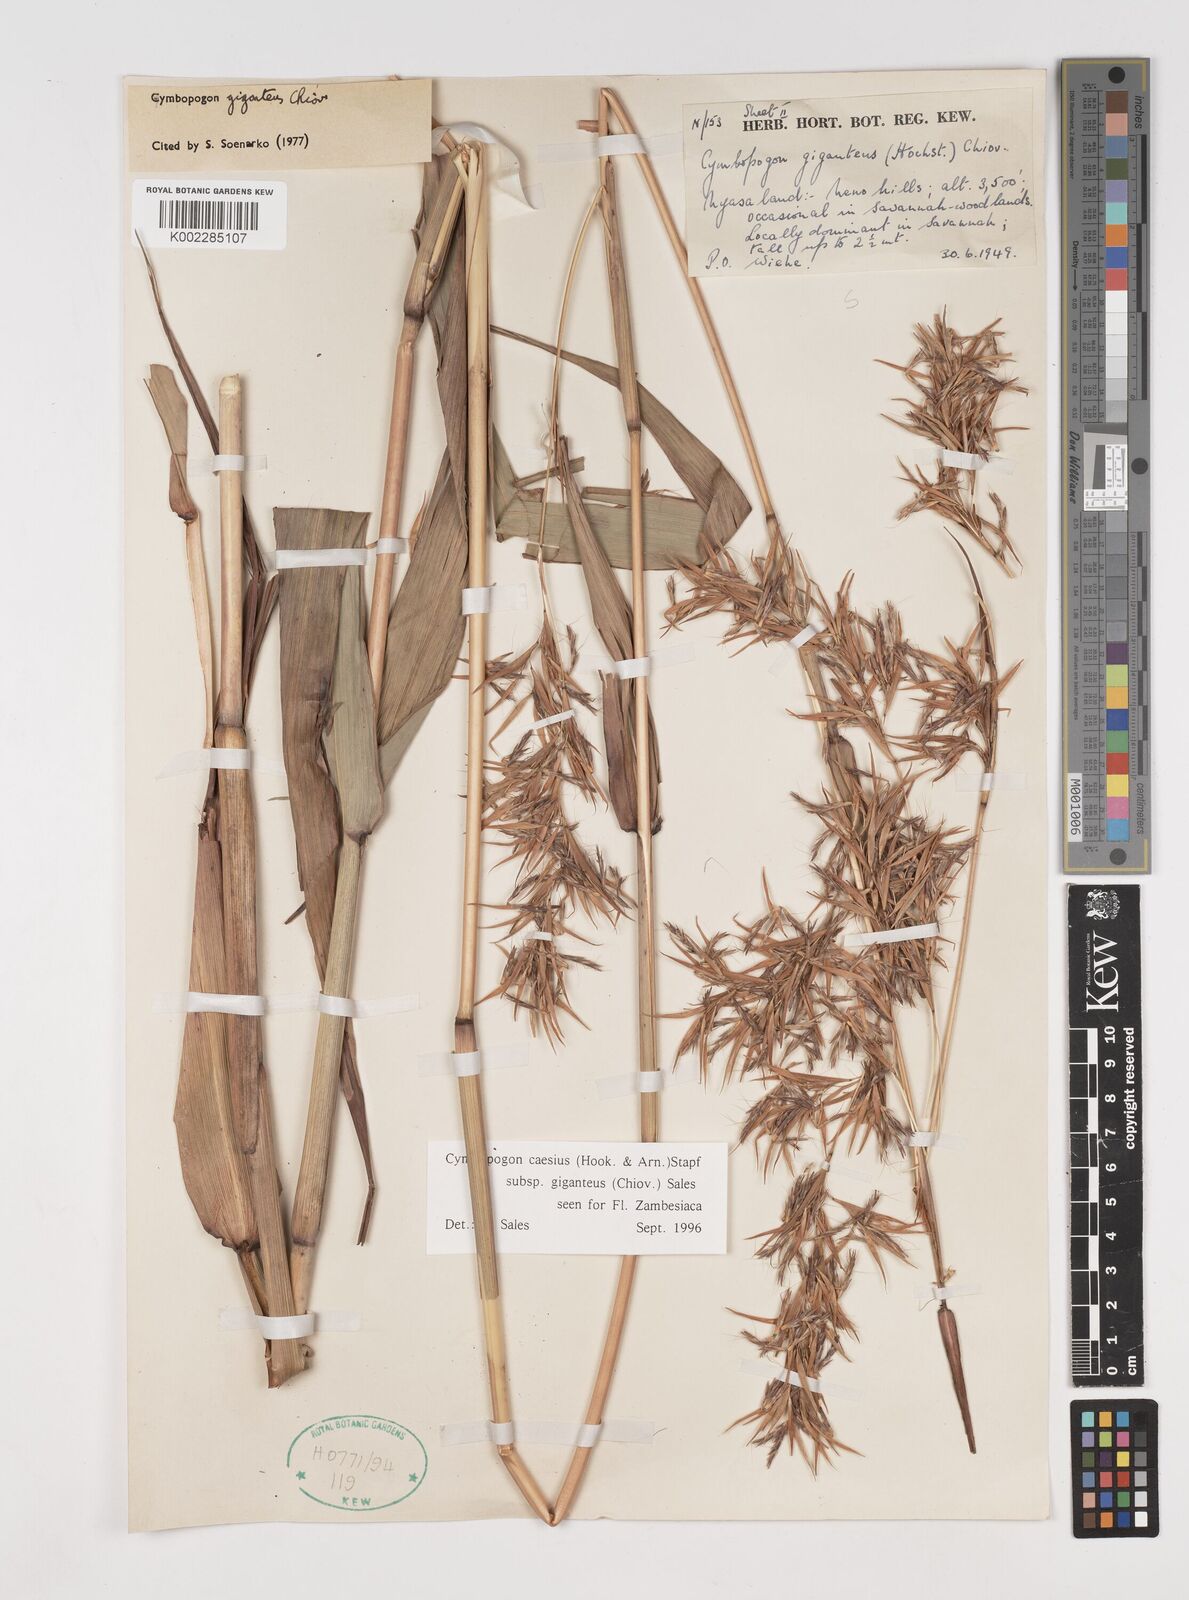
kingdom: Plantae
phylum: Tracheophyta
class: Liliopsida
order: Poales
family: Poaceae
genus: Cymbopogon
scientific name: Cymbopogon giganteus
